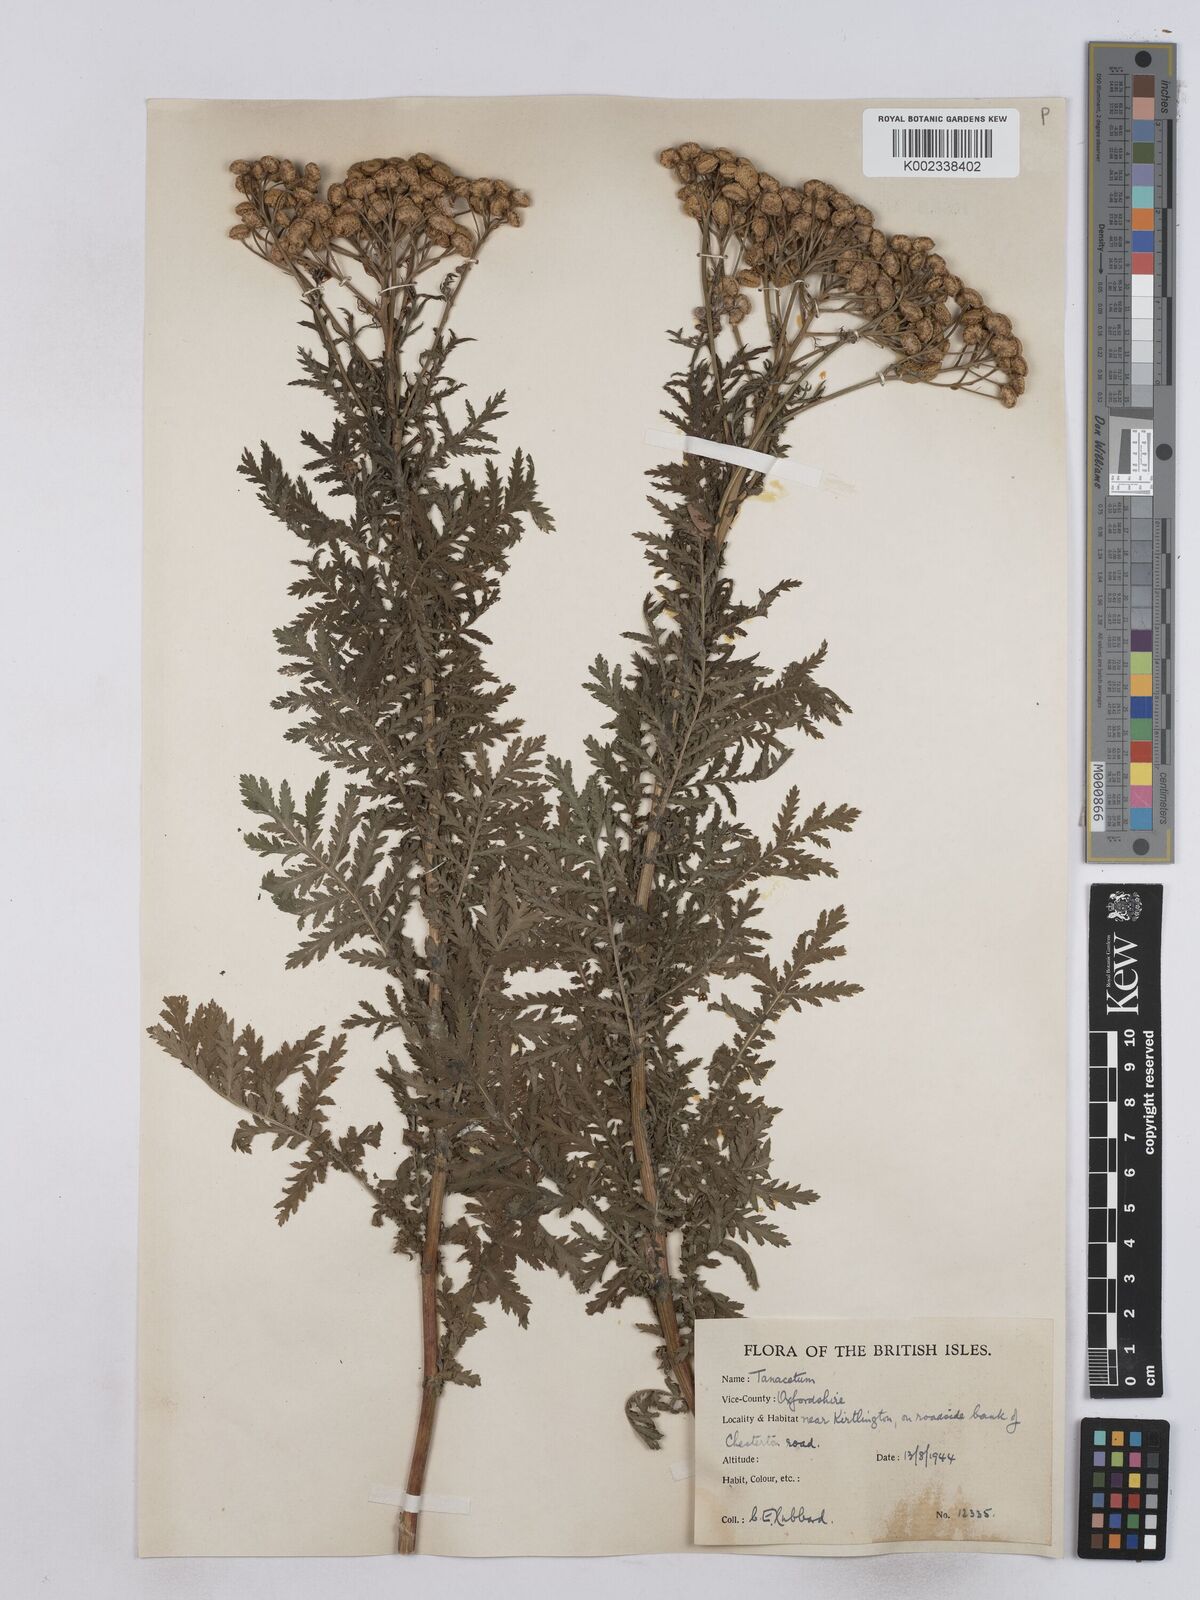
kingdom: Plantae
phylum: Tracheophyta
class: Magnoliopsida
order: Asterales
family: Asteraceae
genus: Tanacetum
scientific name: Tanacetum vulgare
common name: Common tansy
